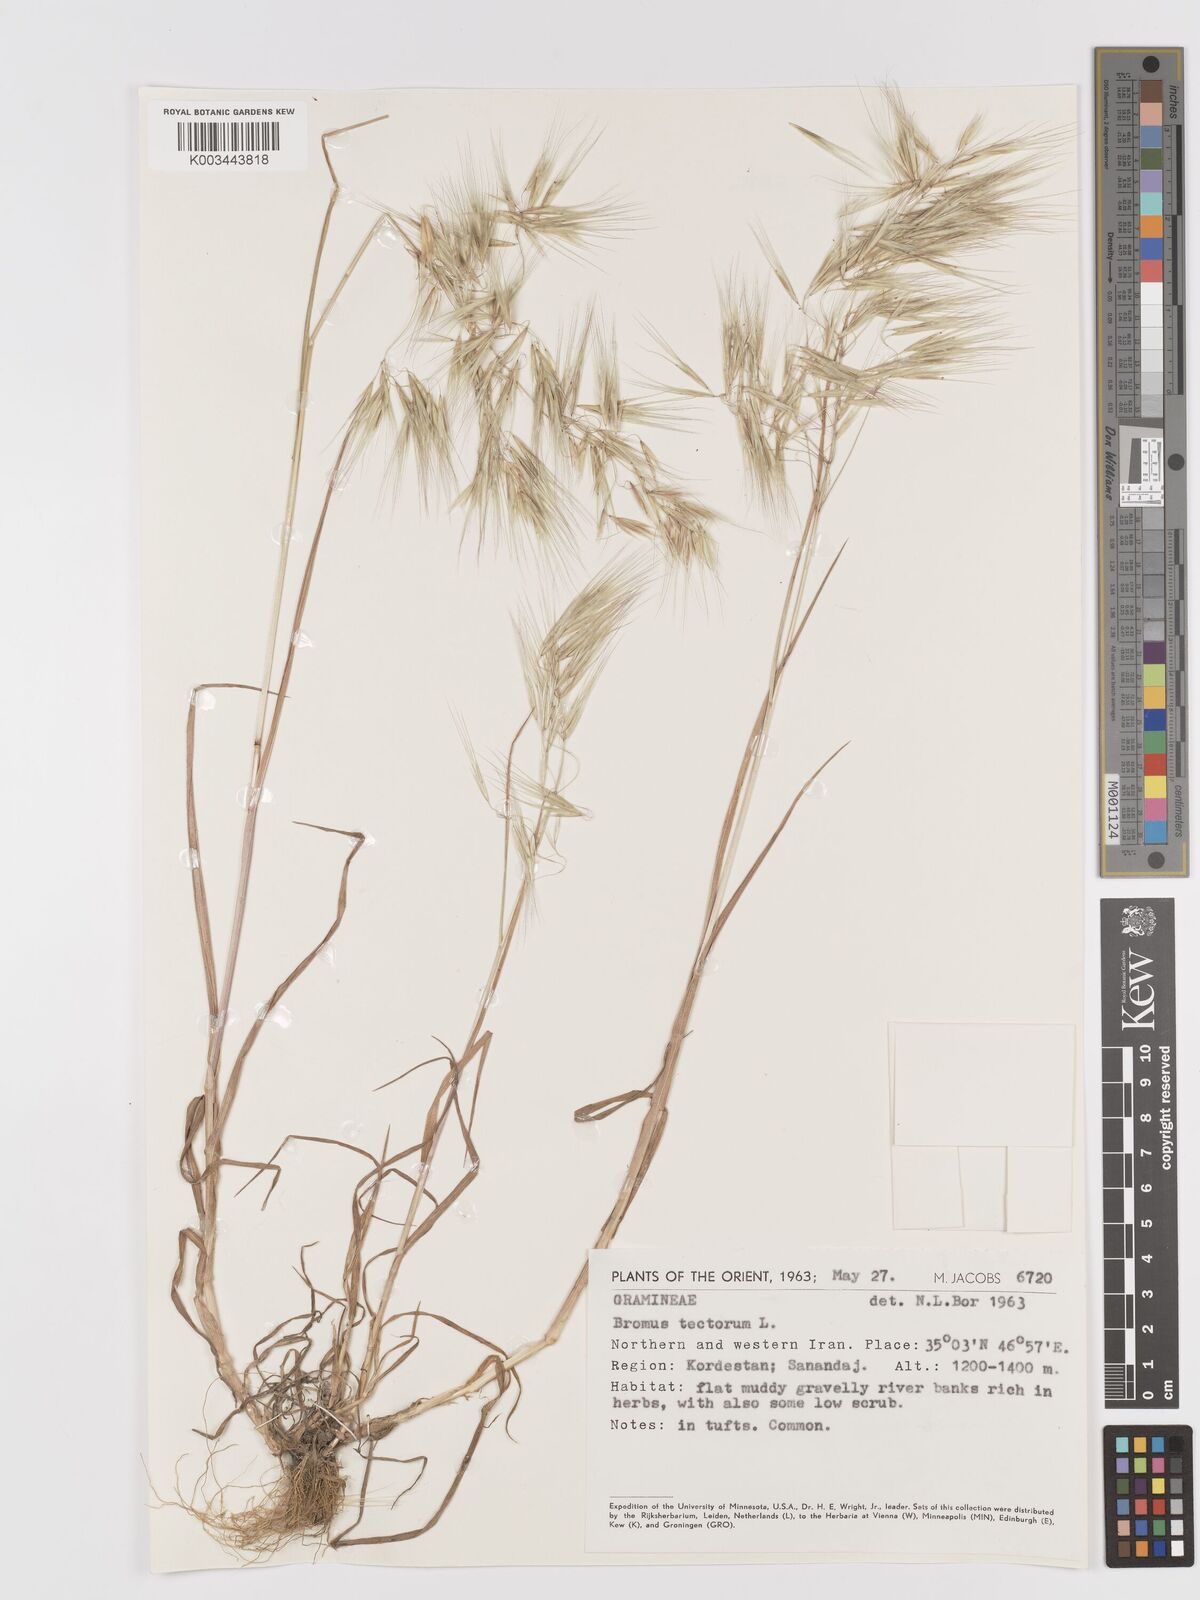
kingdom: Plantae
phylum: Tracheophyta
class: Liliopsida
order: Poales
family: Poaceae
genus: Bromus
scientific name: Bromus tectorum
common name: Cheatgrass
